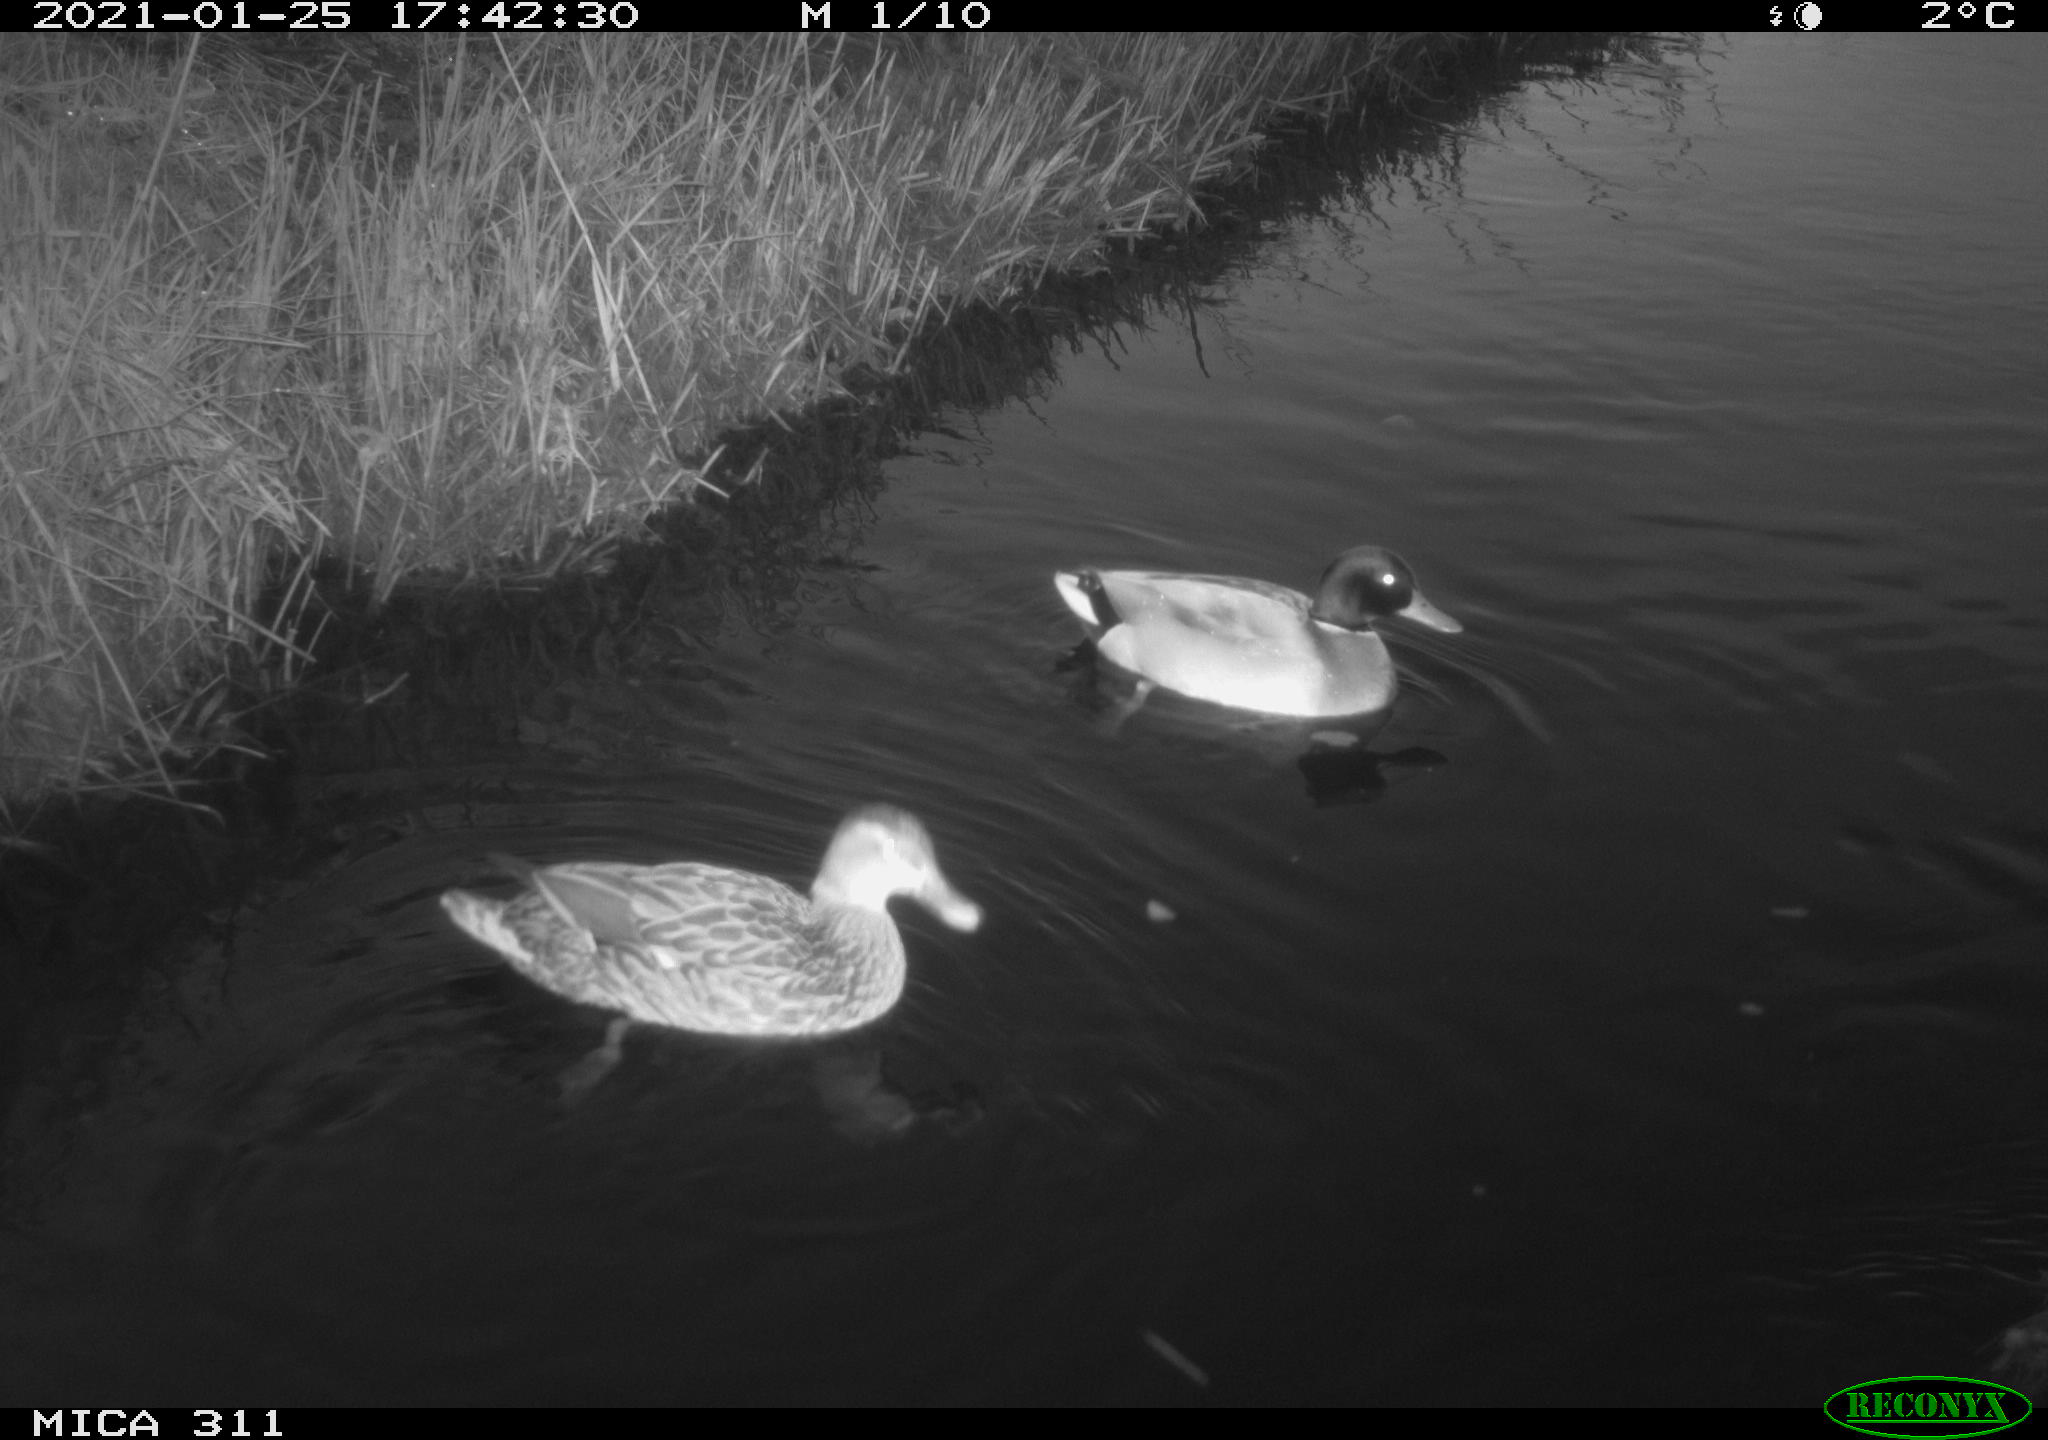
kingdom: Animalia
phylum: Chordata
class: Aves
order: Anseriformes
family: Anatidae
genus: Anas
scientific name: Anas
